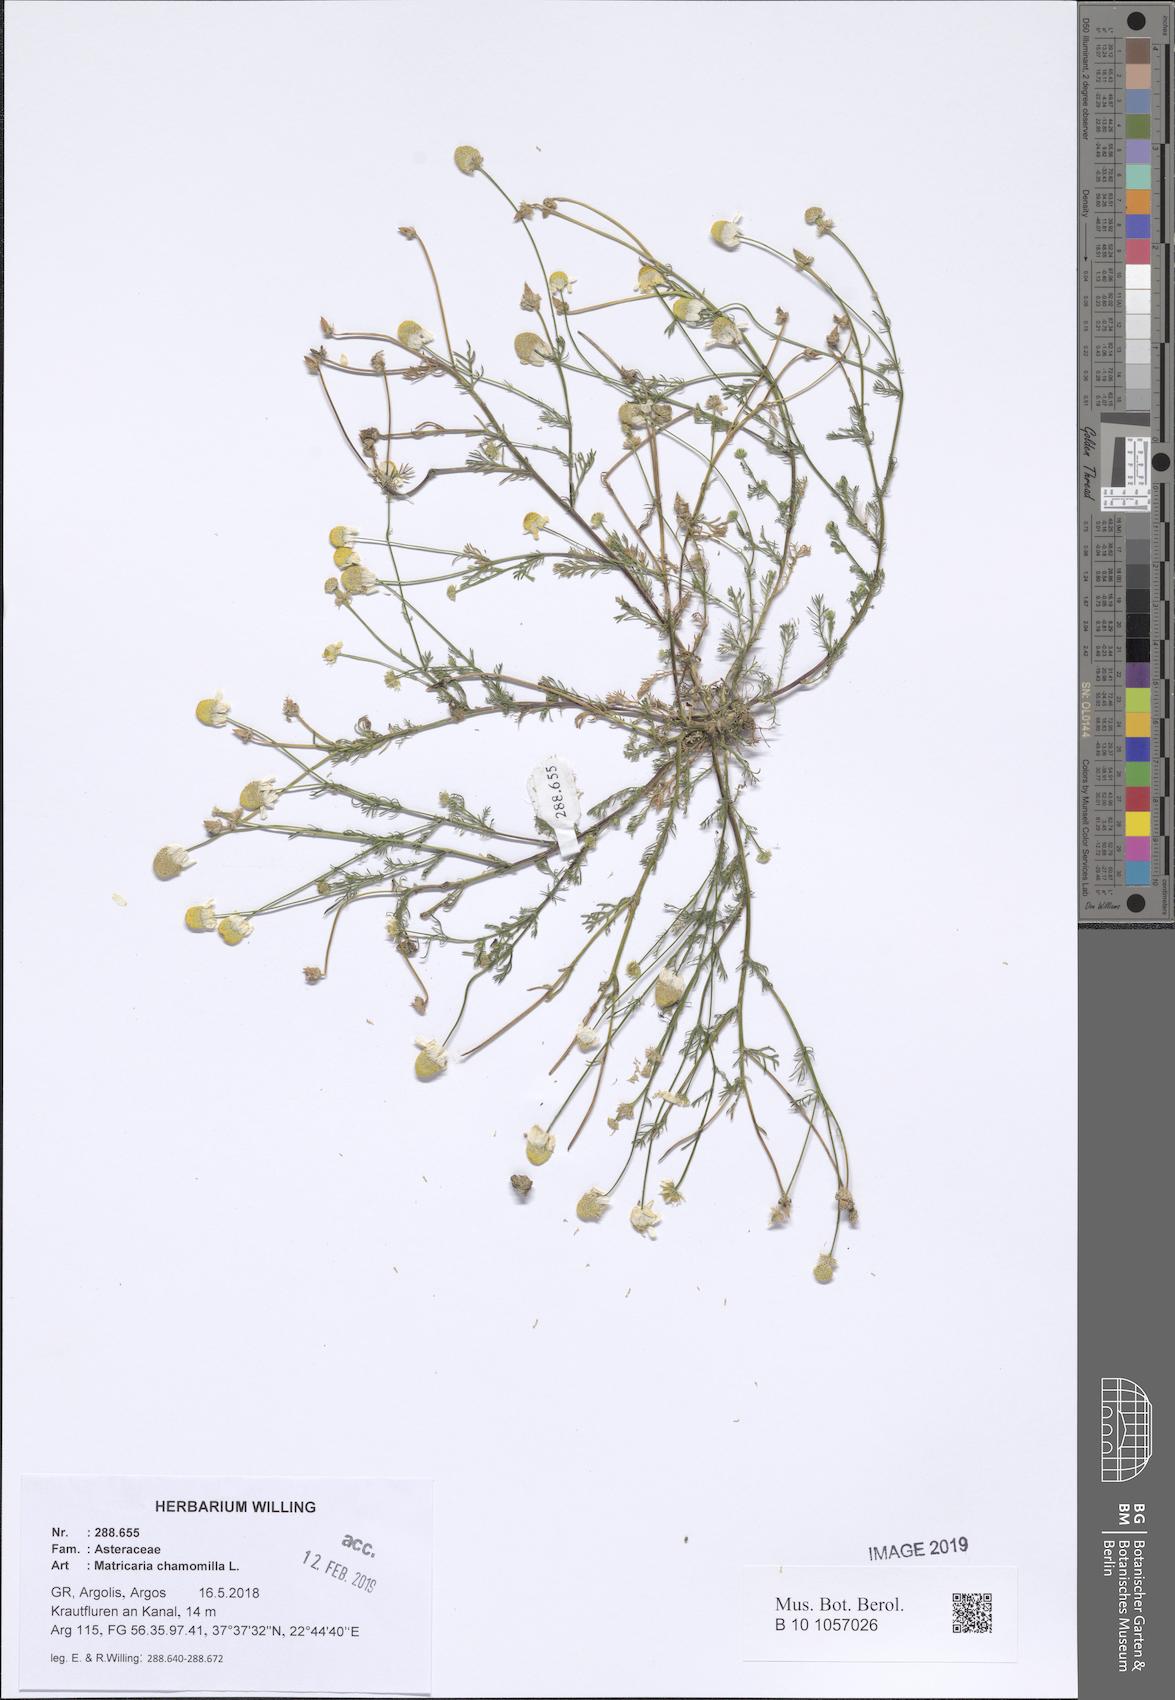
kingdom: Plantae
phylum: Tracheophyta
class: Magnoliopsida
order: Asterales
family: Asteraceae
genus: Matricaria
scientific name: Matricaria chamomilla
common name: Scented mayweed
